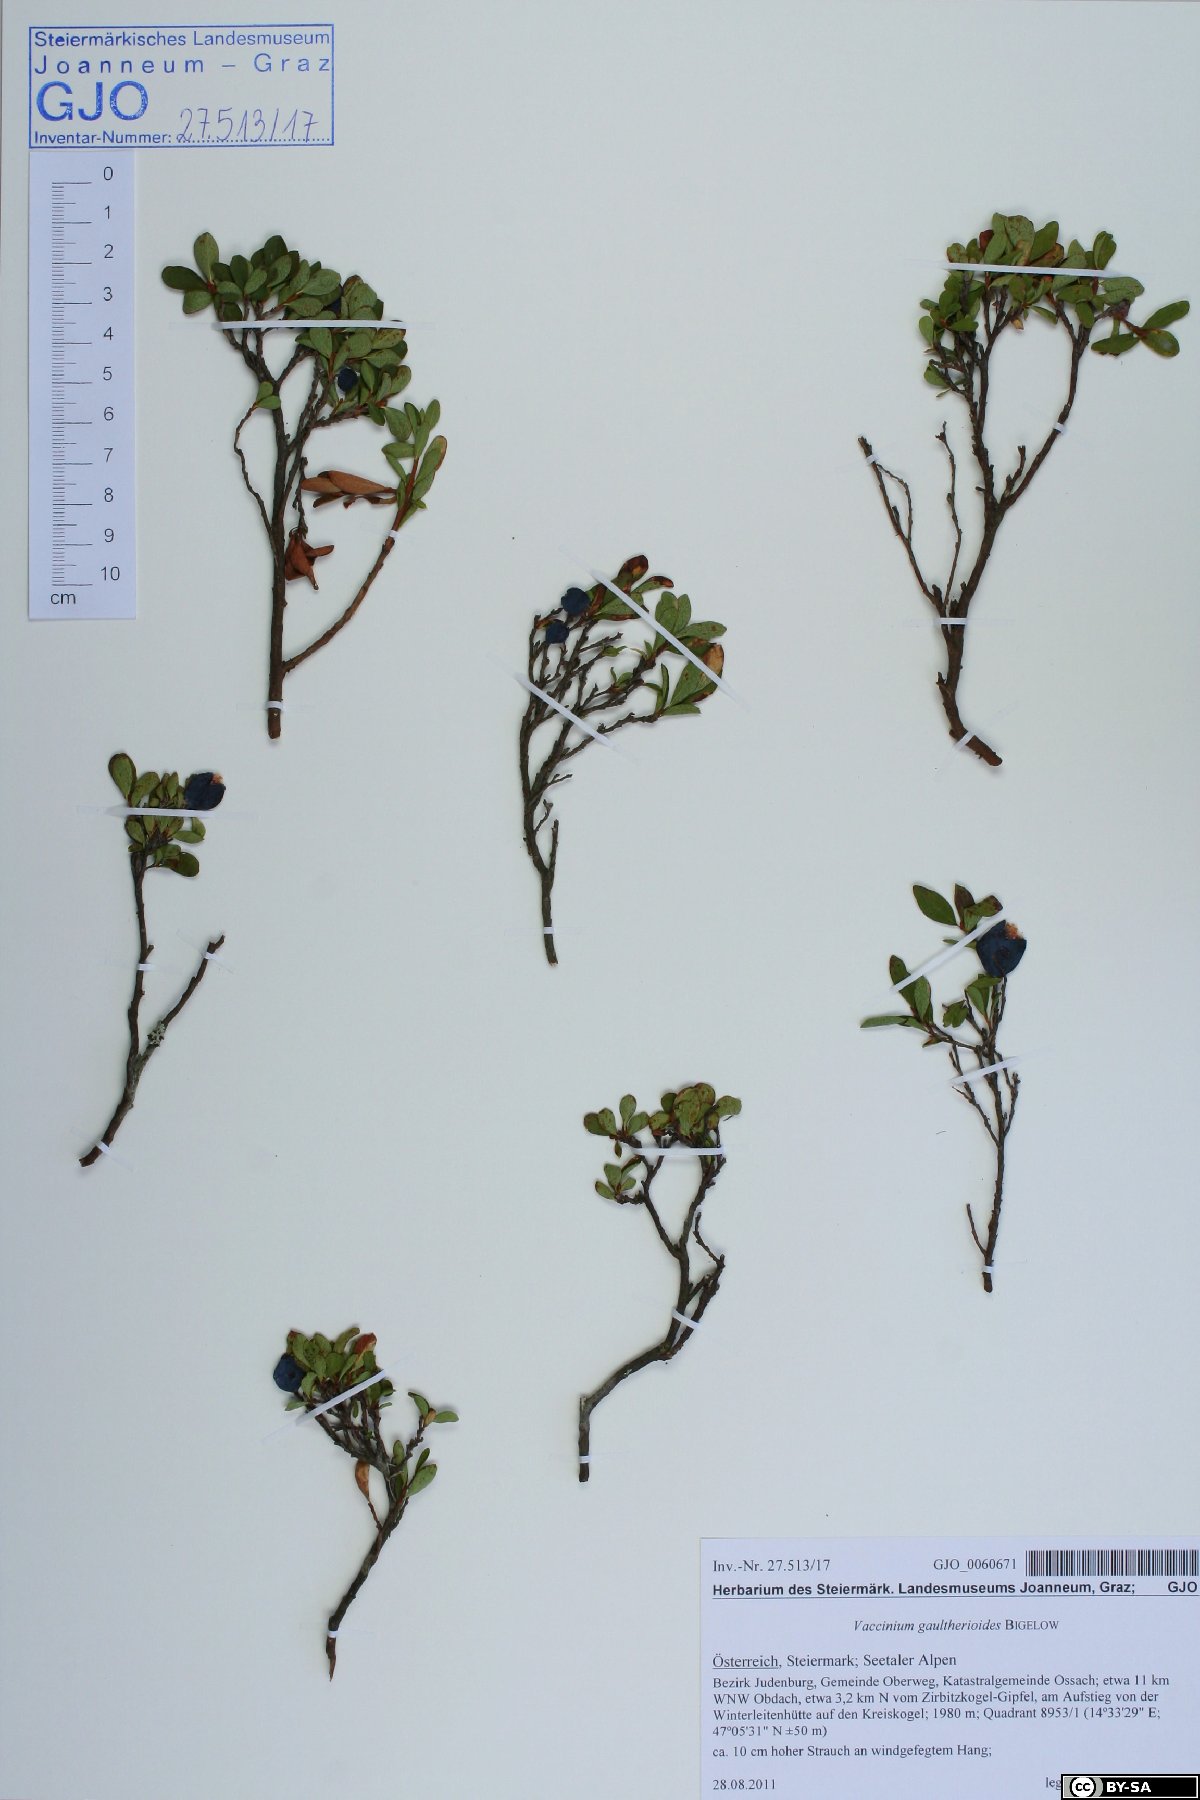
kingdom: Plantae
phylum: Tracheophyta
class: Magnoliopsida
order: Ericales
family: Ericaceae
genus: Vaccinium
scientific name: Vaccinium gaultherioides
